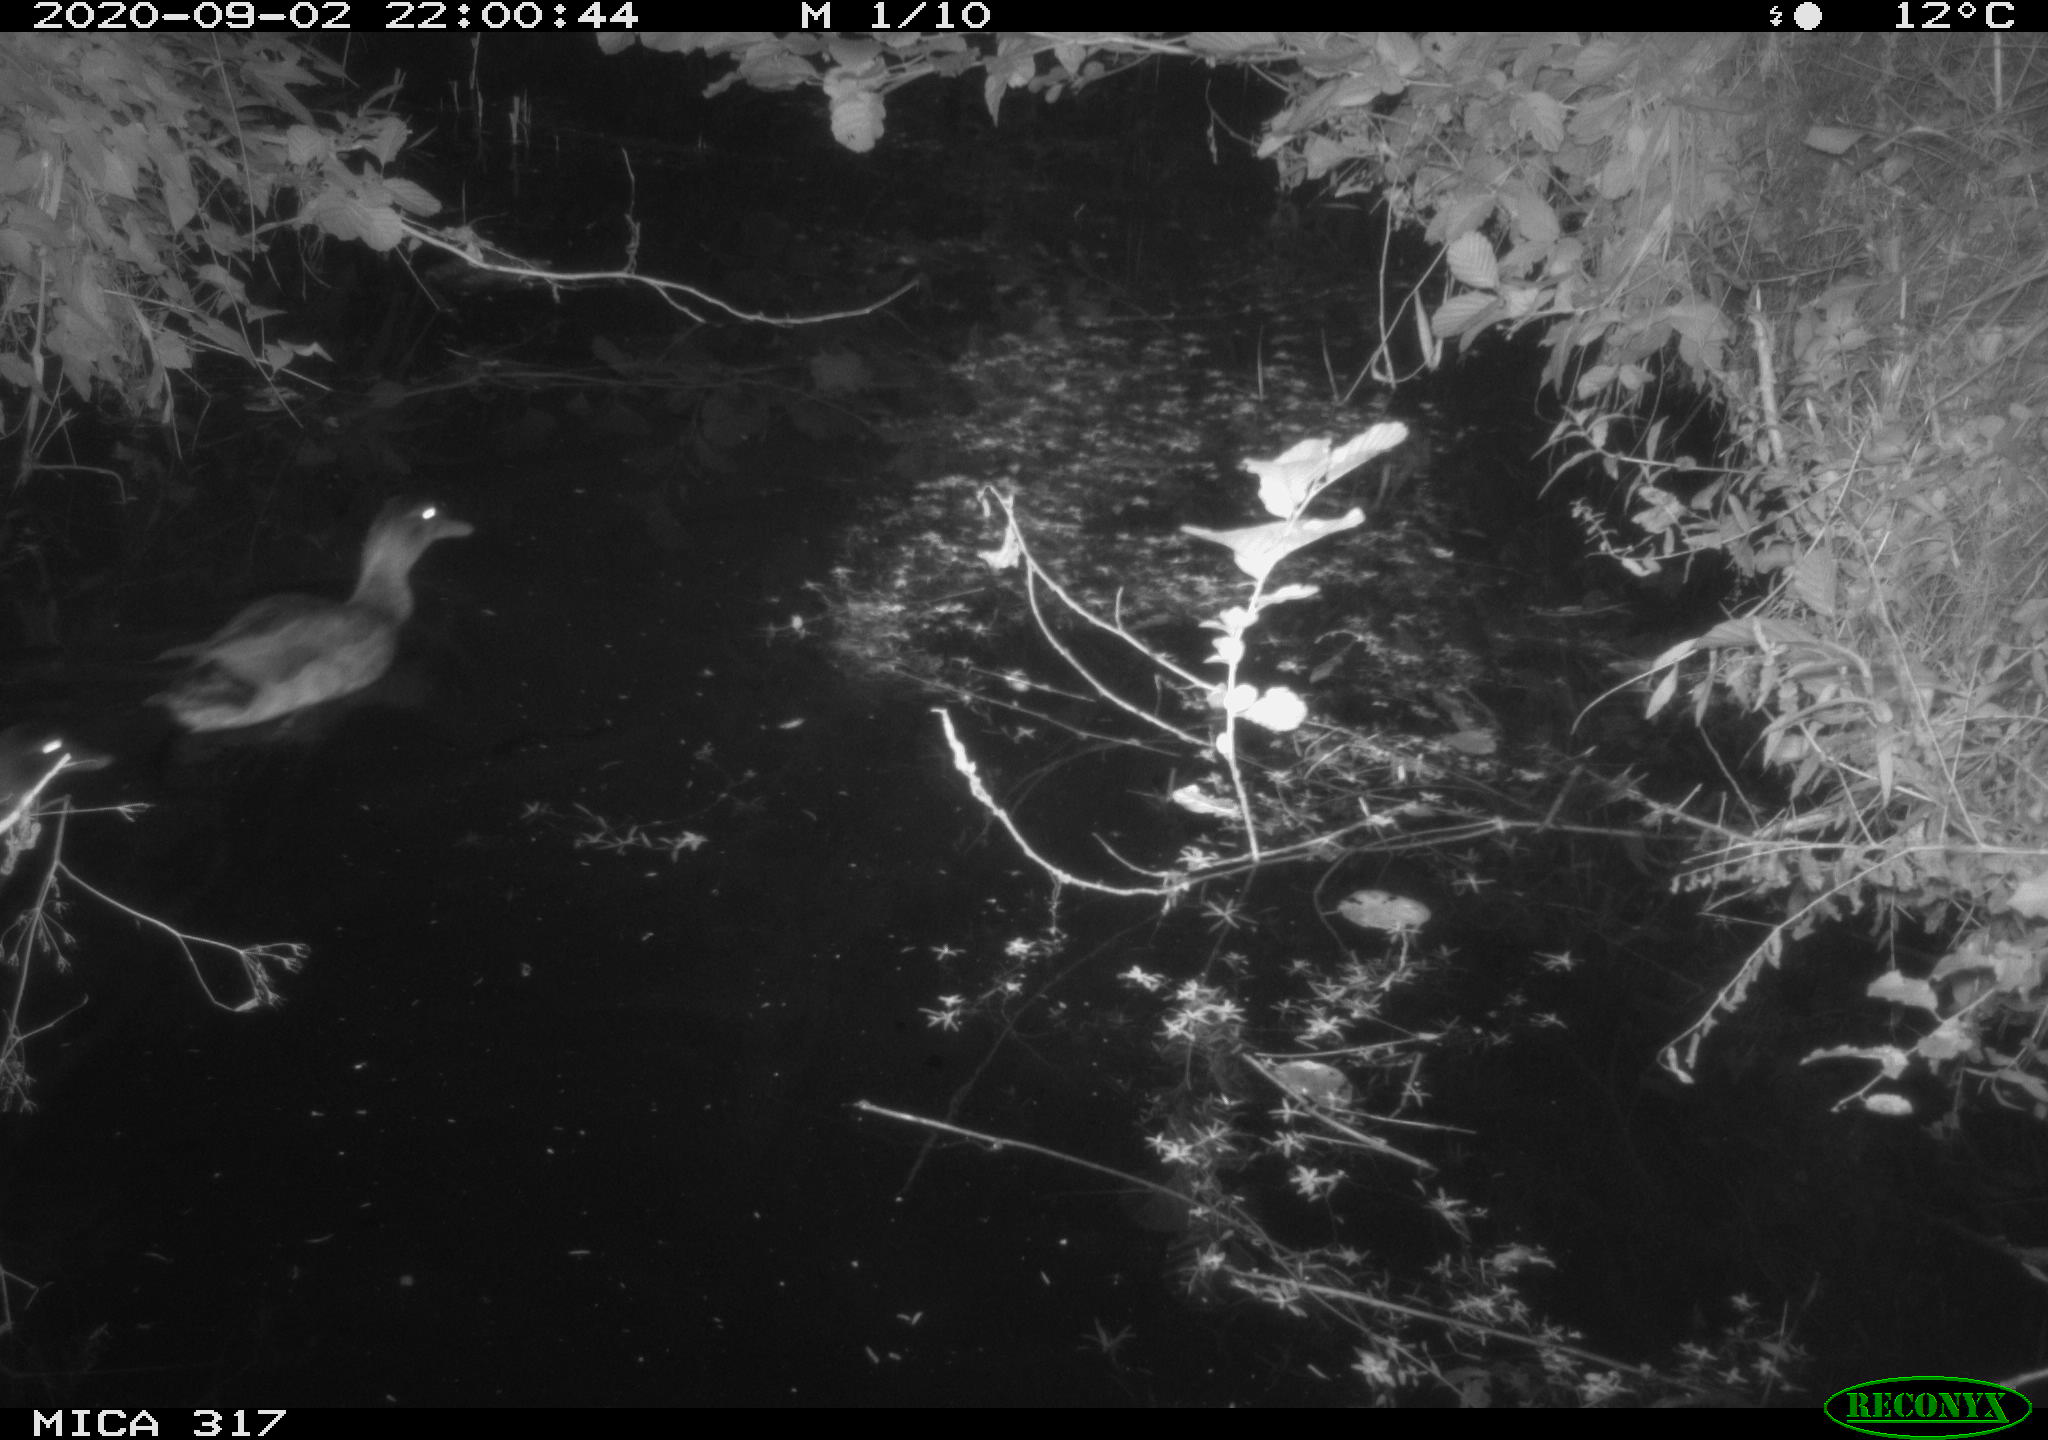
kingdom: Animalia
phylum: Chordata
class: Aves
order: Anseriformes
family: Anatidae
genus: Anas
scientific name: Anas platyrhynchos
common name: Mallard
